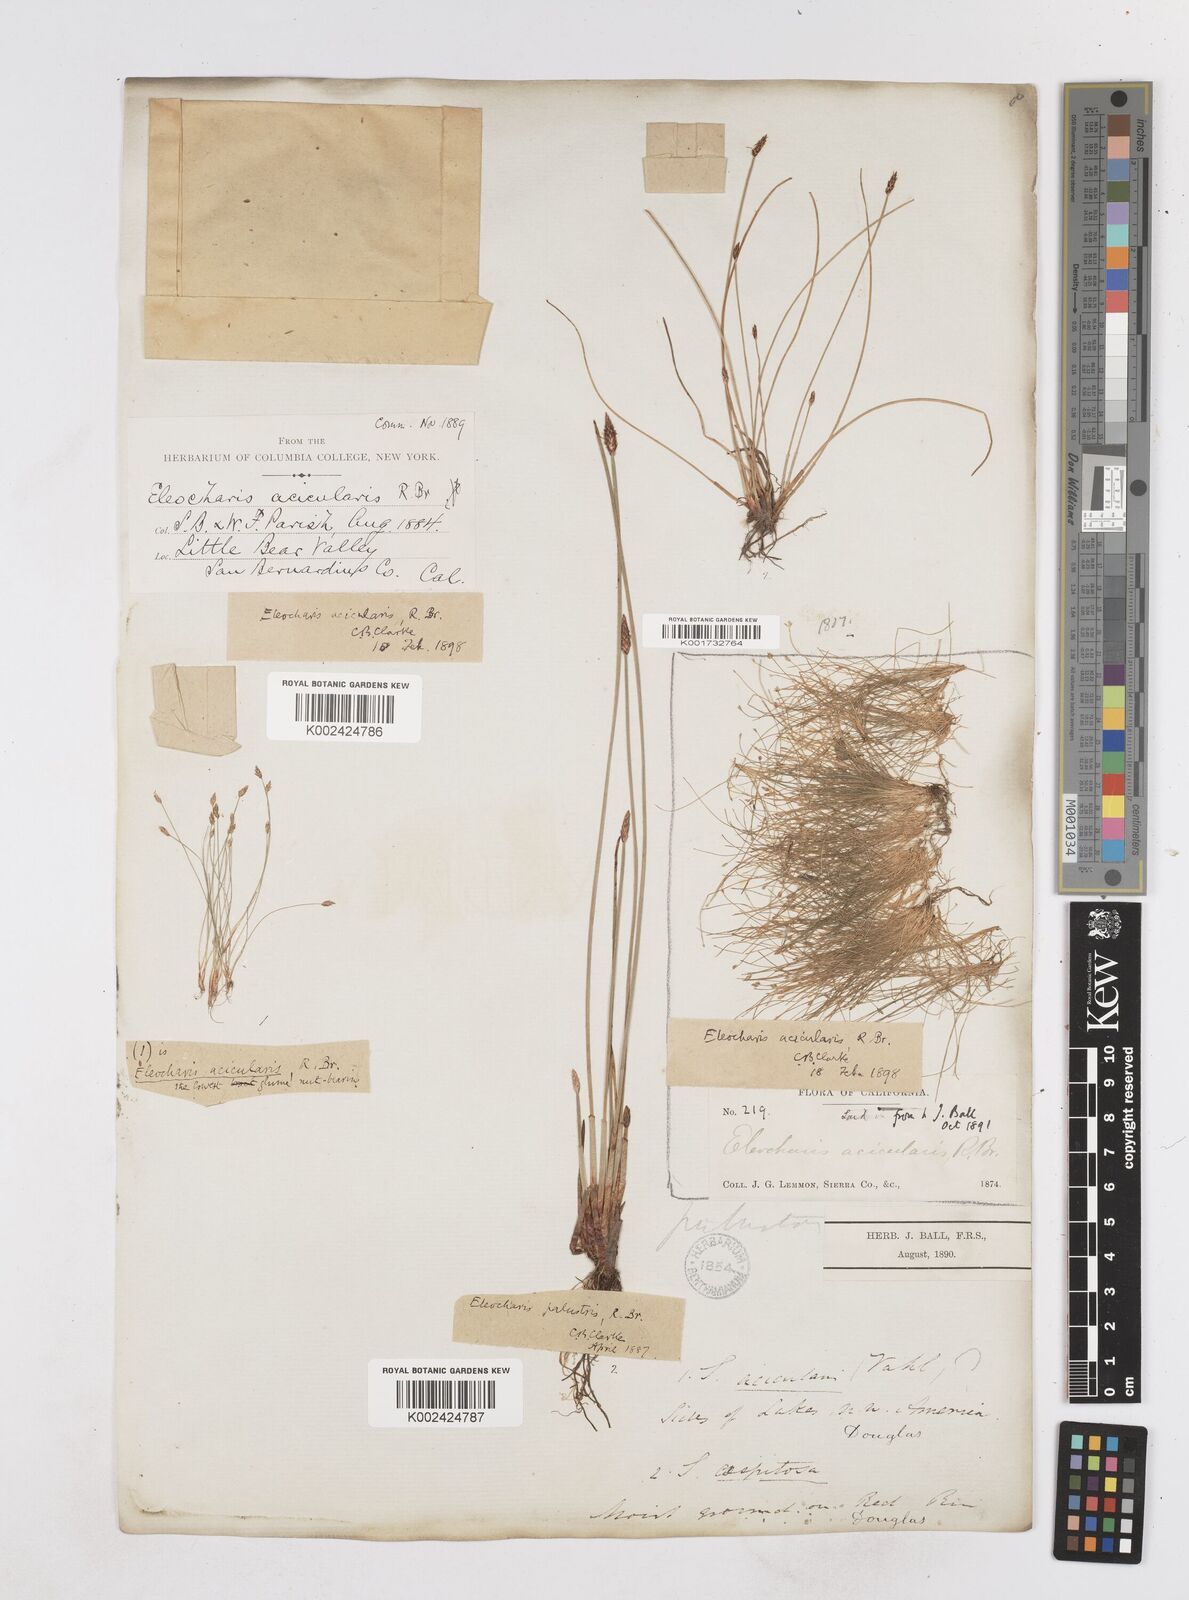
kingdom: Plantae
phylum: Tracheophyta
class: Liliopsida
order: Poales
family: Cyperaceae
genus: Eleocharis
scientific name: Eleocharis acicularis
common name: Needle spike-rush
